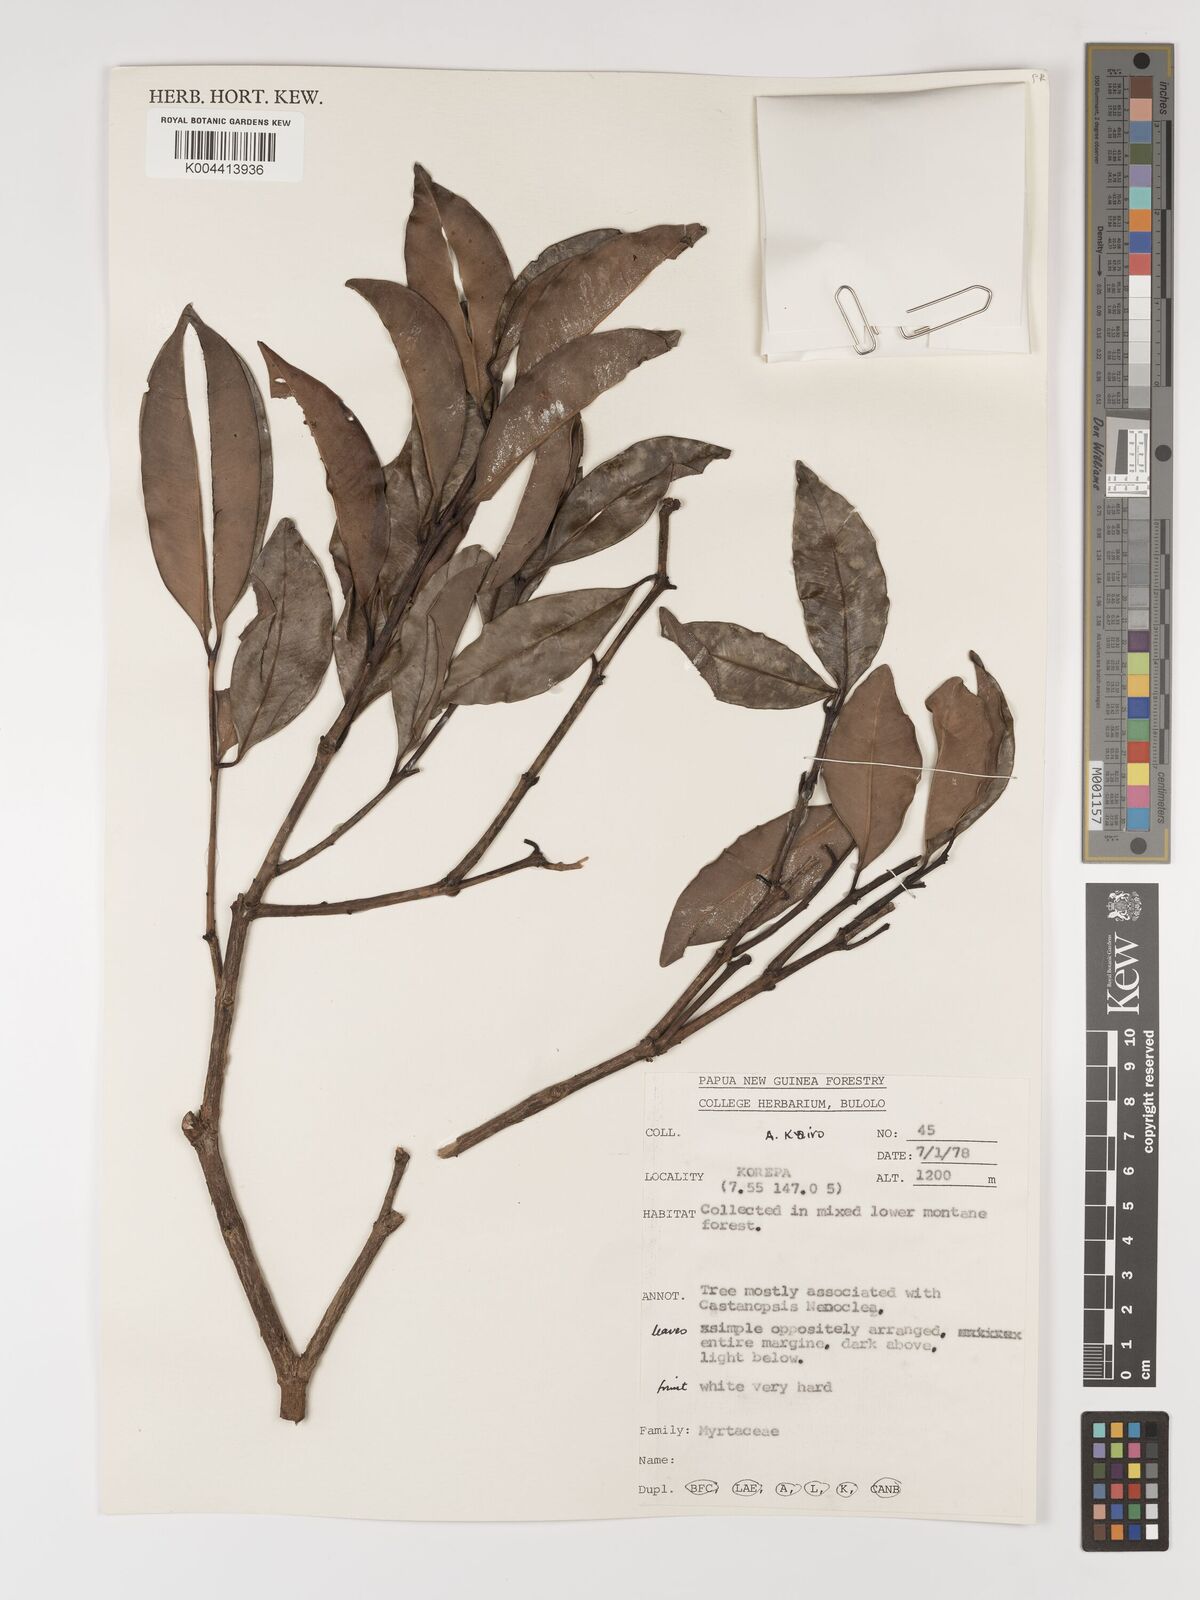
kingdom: Plantae
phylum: Tracheophyta
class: Magnoliopsida
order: Myrtales
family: Myrtaceae
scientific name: Myrtaceae
